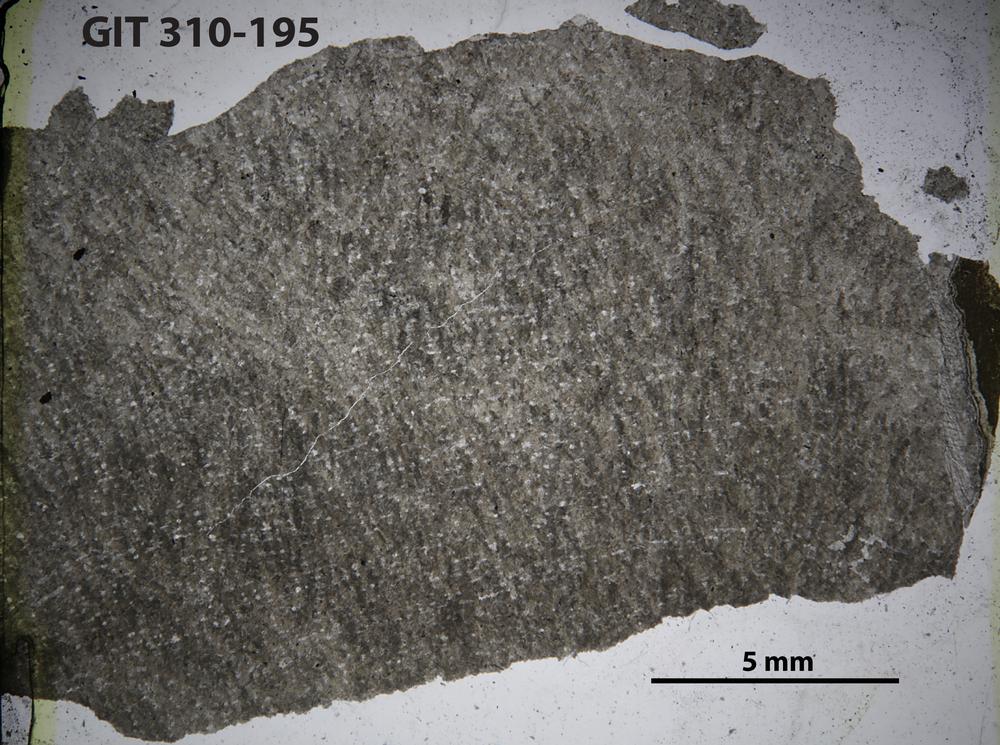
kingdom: Animalia
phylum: Porifera
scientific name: Porifera
